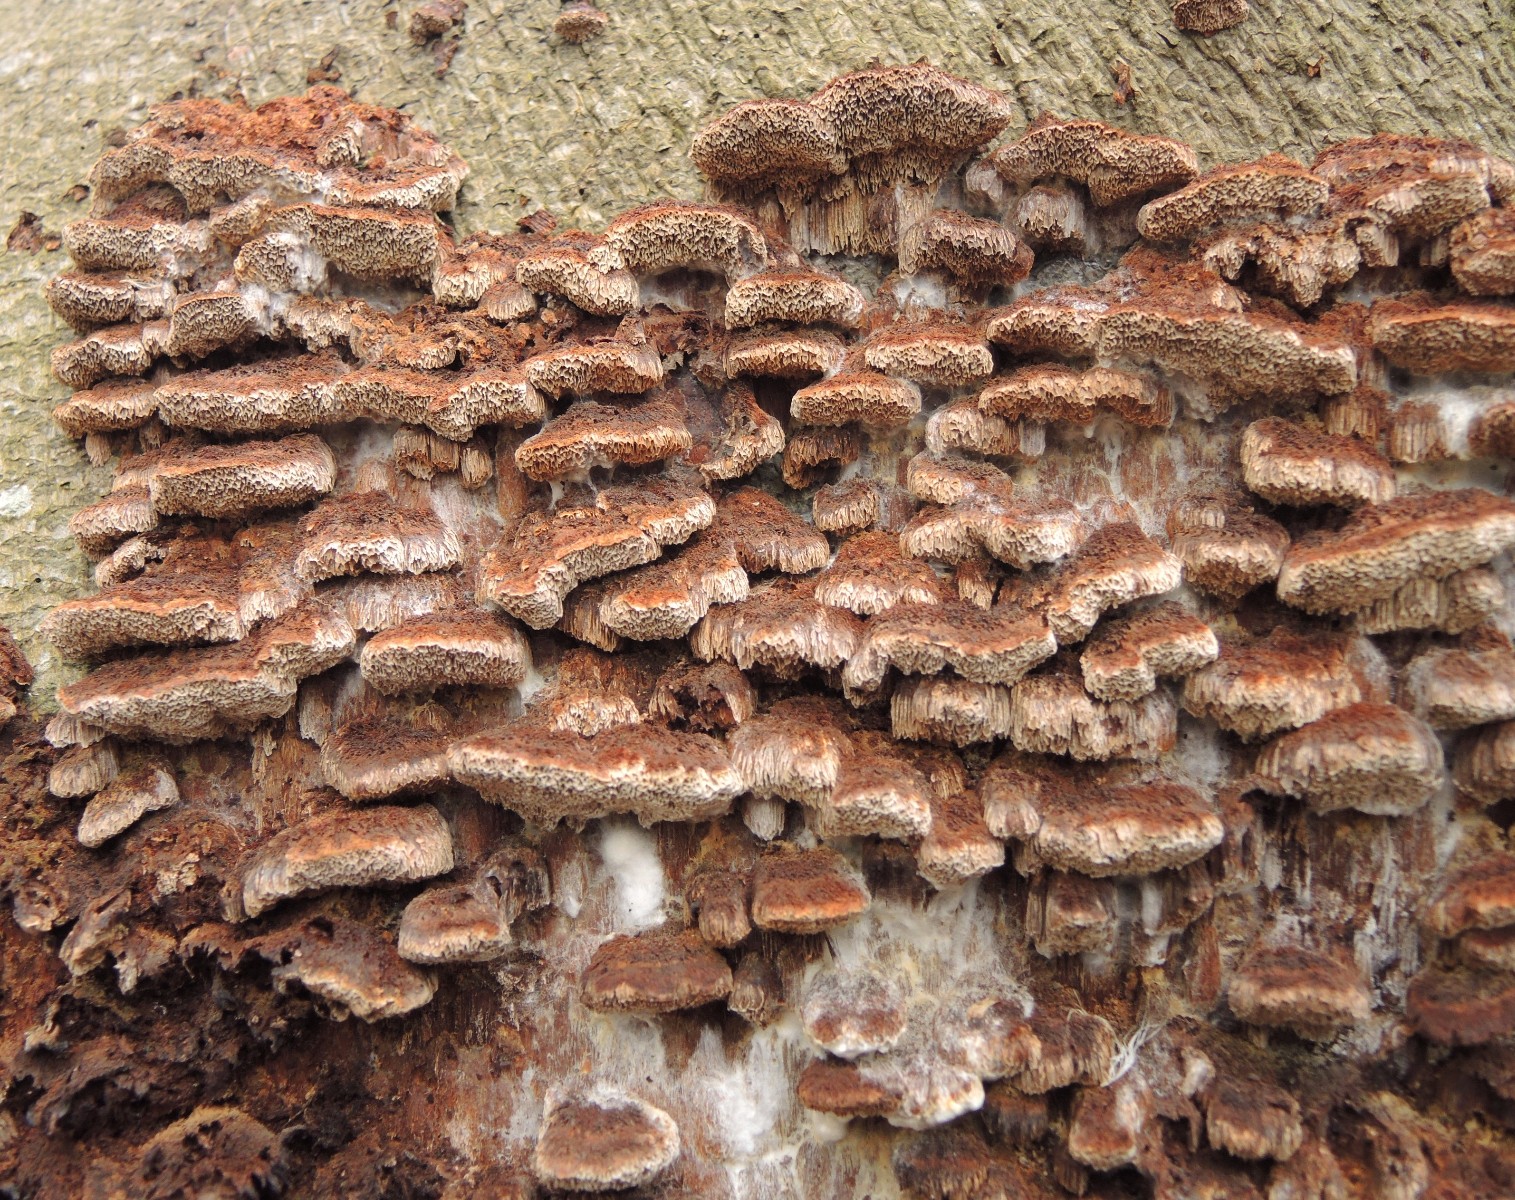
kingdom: Fungi
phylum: Basidiomycota
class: Agaricomycetes
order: Hymenochaetales
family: Hymenochaetaceae
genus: Mensularia
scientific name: Mensularia nodulosa
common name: bøge-spejlporesvamp
